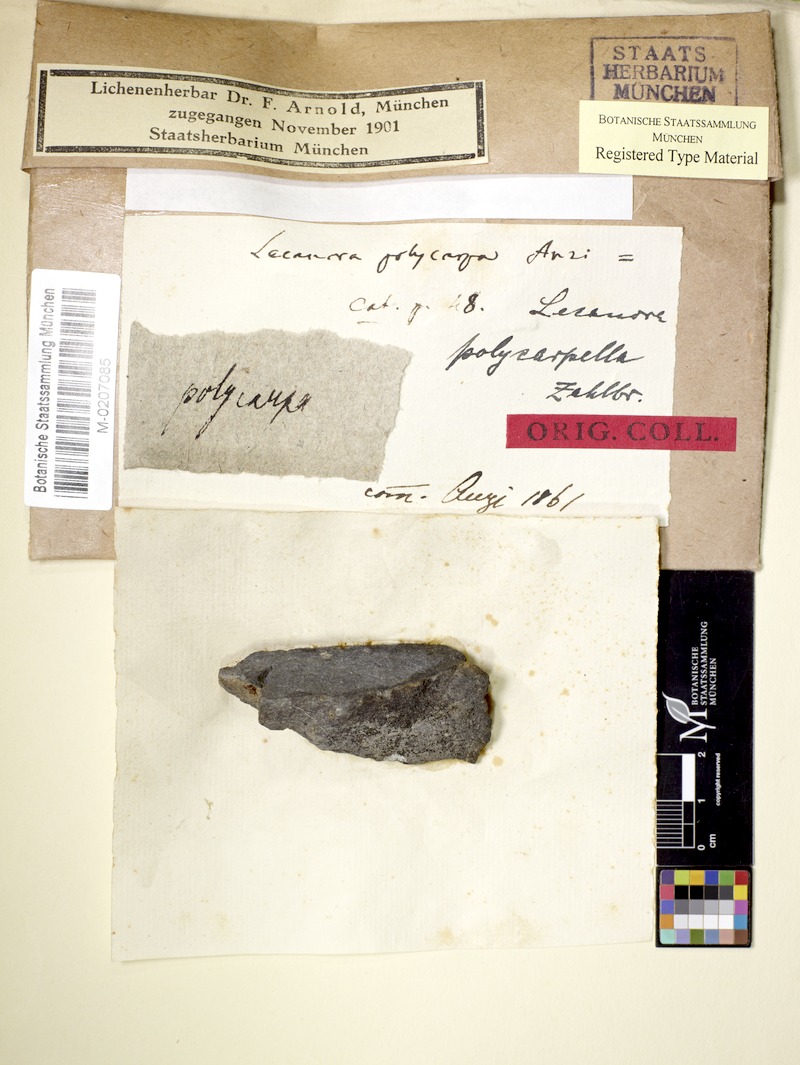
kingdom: Fungi
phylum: Ascomycota
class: Lecanoromycetes
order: Lecanorales
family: Lecanoraceae
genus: Lecanora
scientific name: Lecanora sinensis
